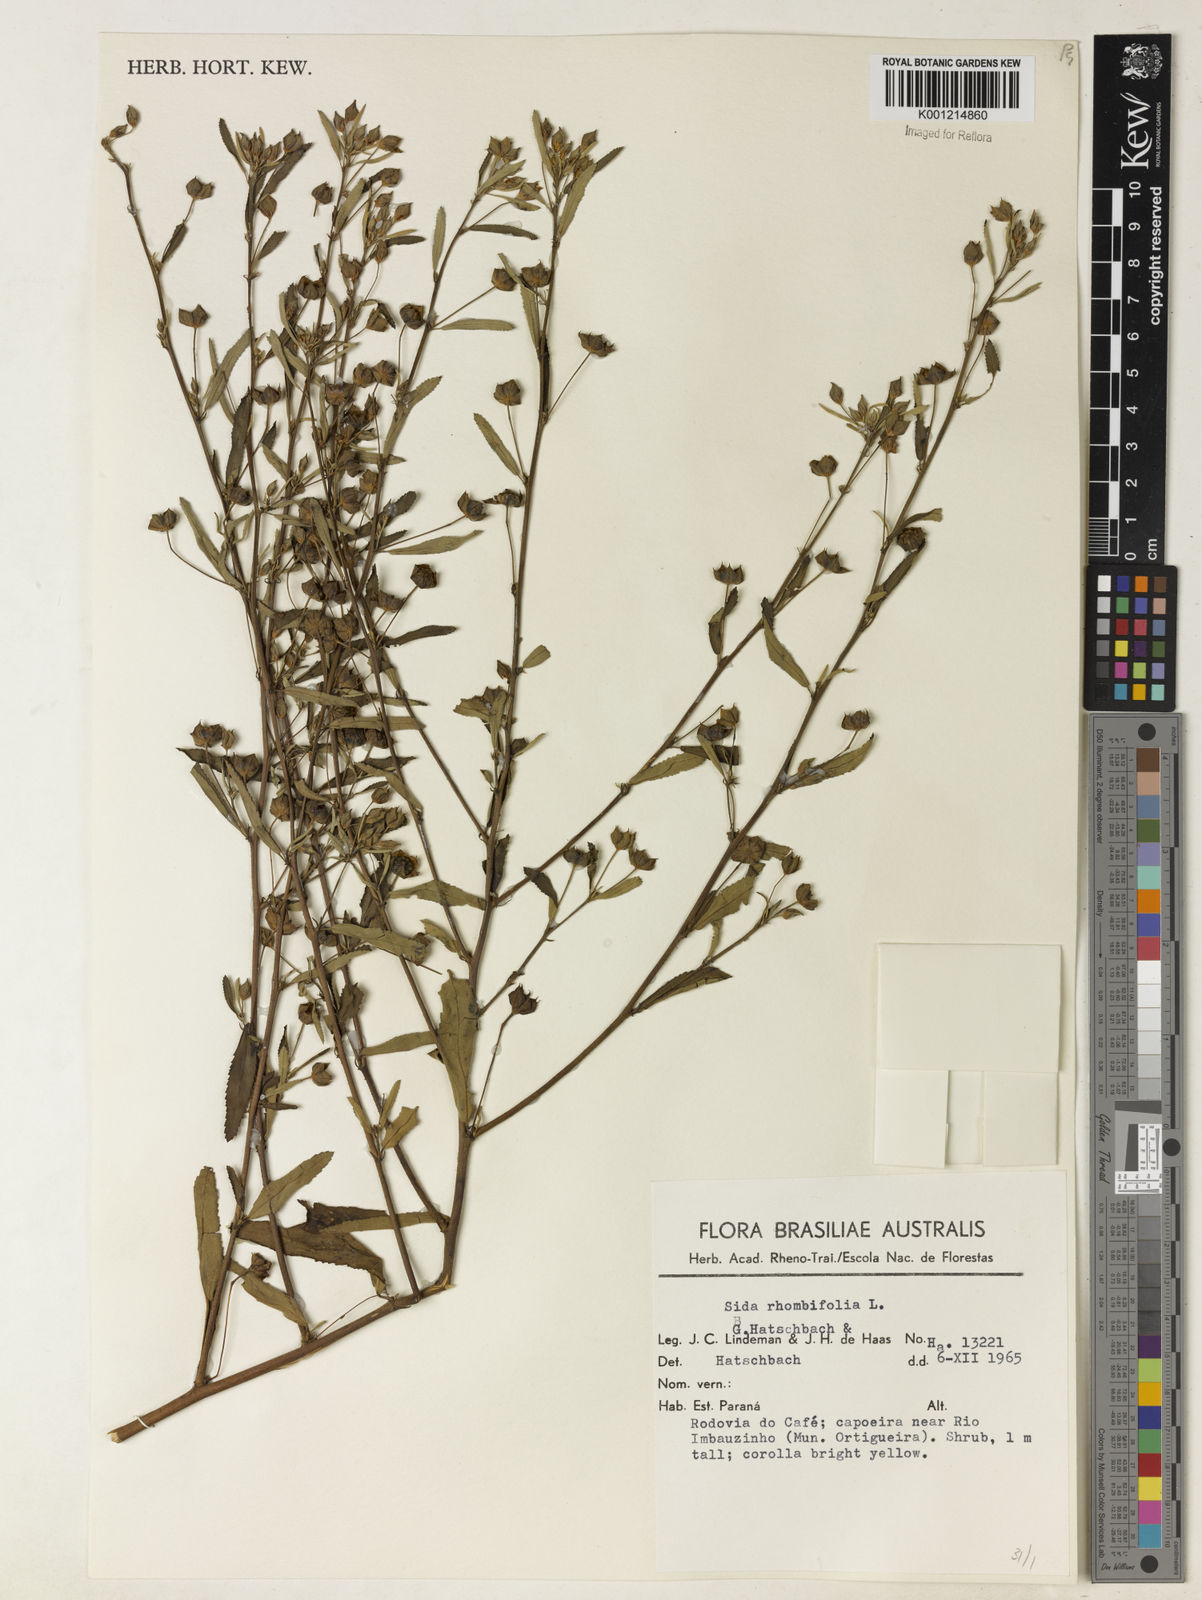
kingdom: Plantae
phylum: Tracheophyta
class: Magnoliopsida
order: Malvales
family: Malvaceae
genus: Sida
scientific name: Sida rhombifolia
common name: Queensland-hemp
